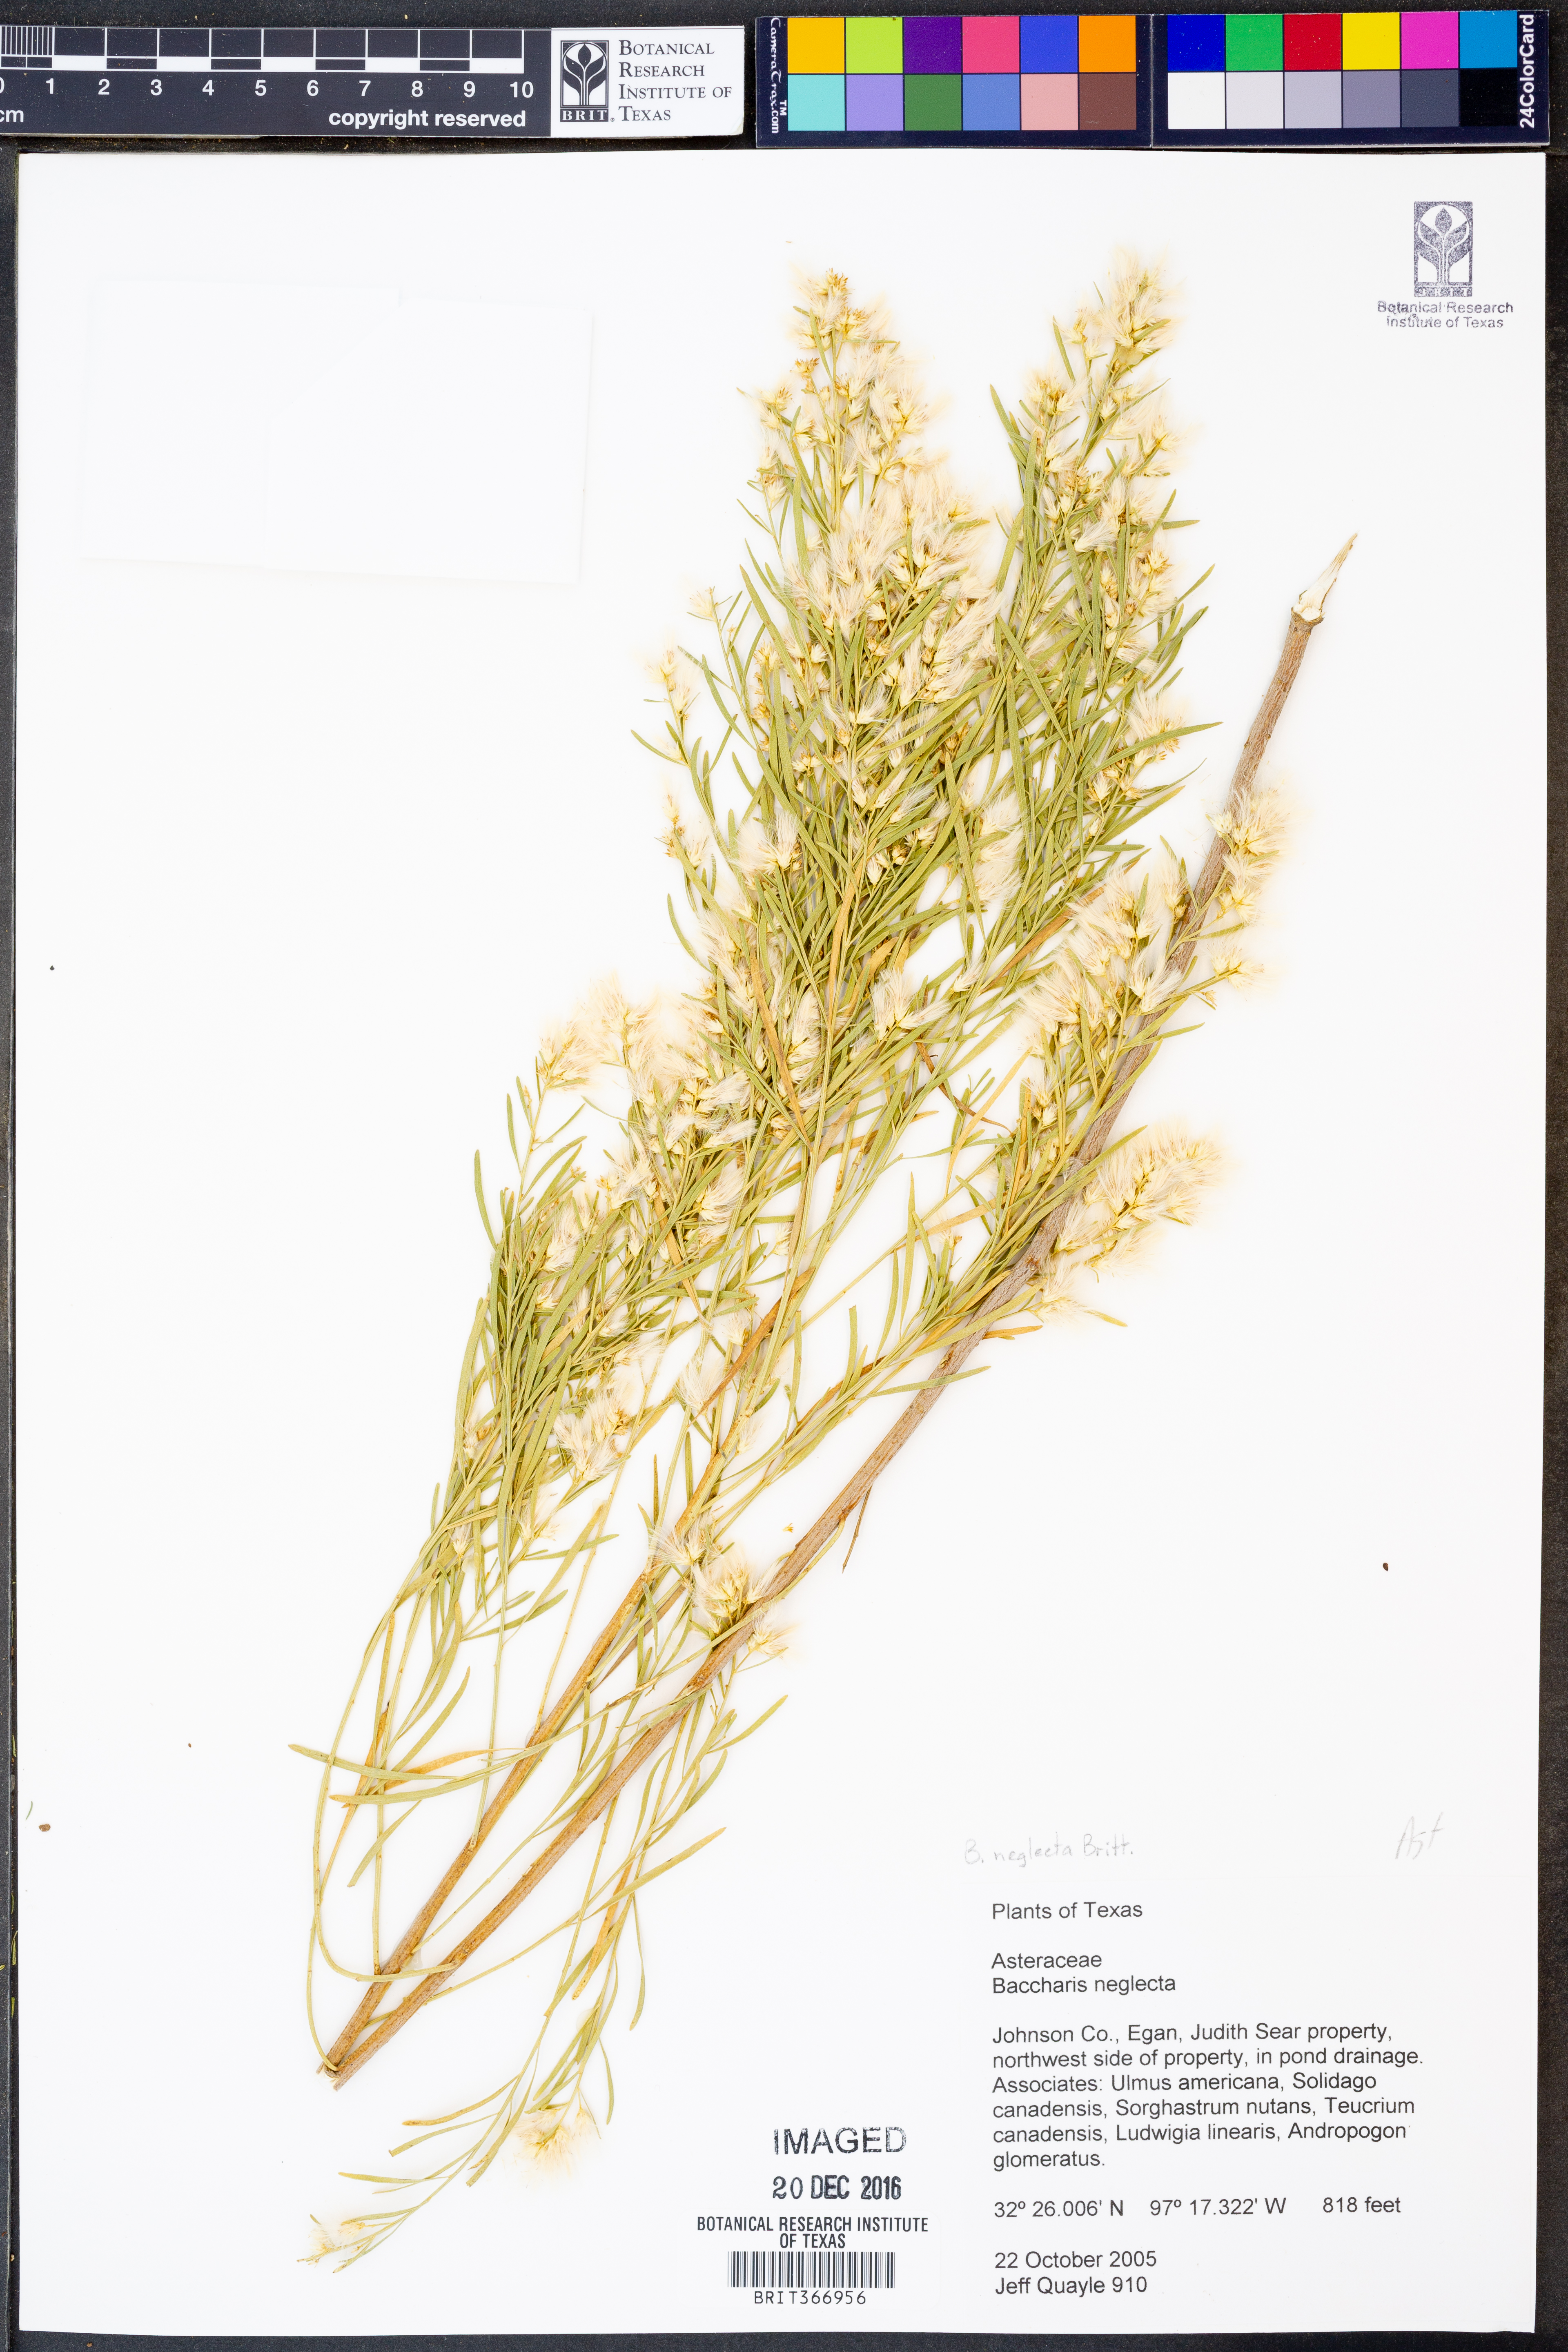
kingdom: Plantae
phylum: Tracheophyta
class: Magnoliopsida
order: Asterales
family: Asteraceae
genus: Baccharis
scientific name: Baccharis neglecta
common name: Roosevelt-weed
